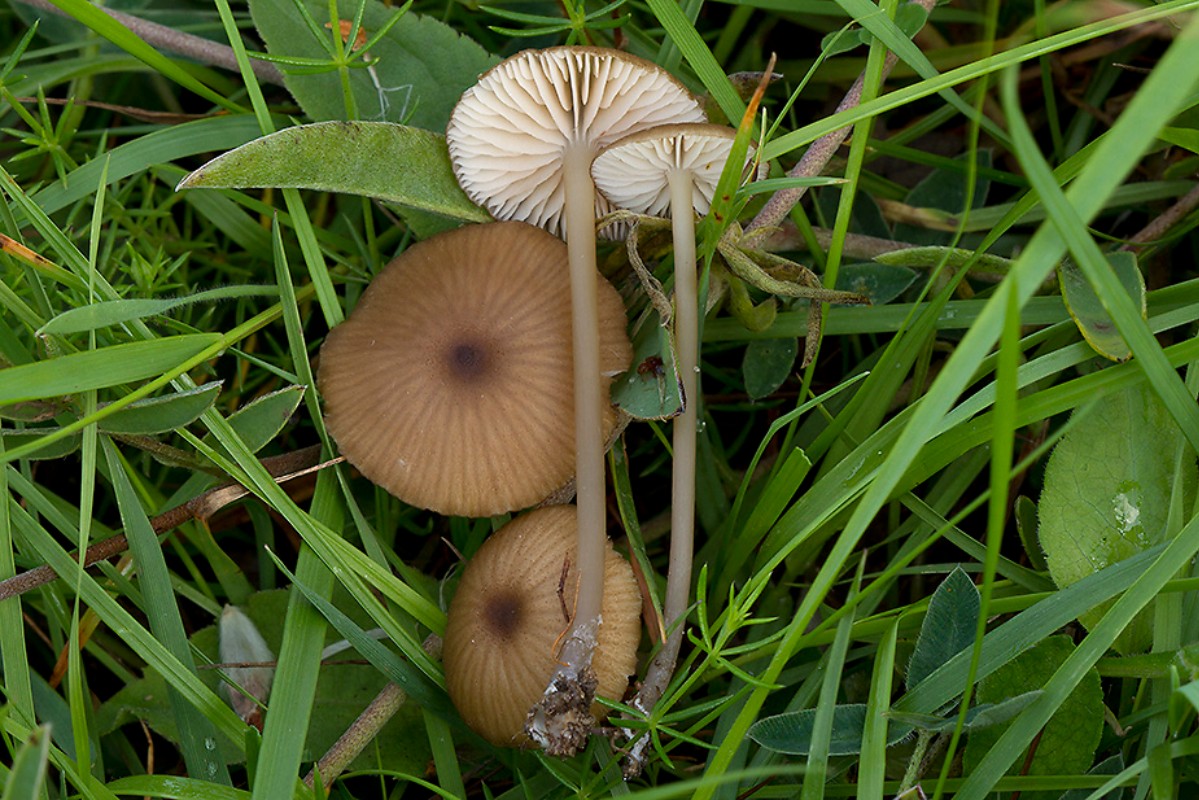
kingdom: Fungi
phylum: Basidiomycota
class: Agaricomycetes
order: Agaricales
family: Entolomataceae
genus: Entoloma
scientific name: Entoloma longistriatum
